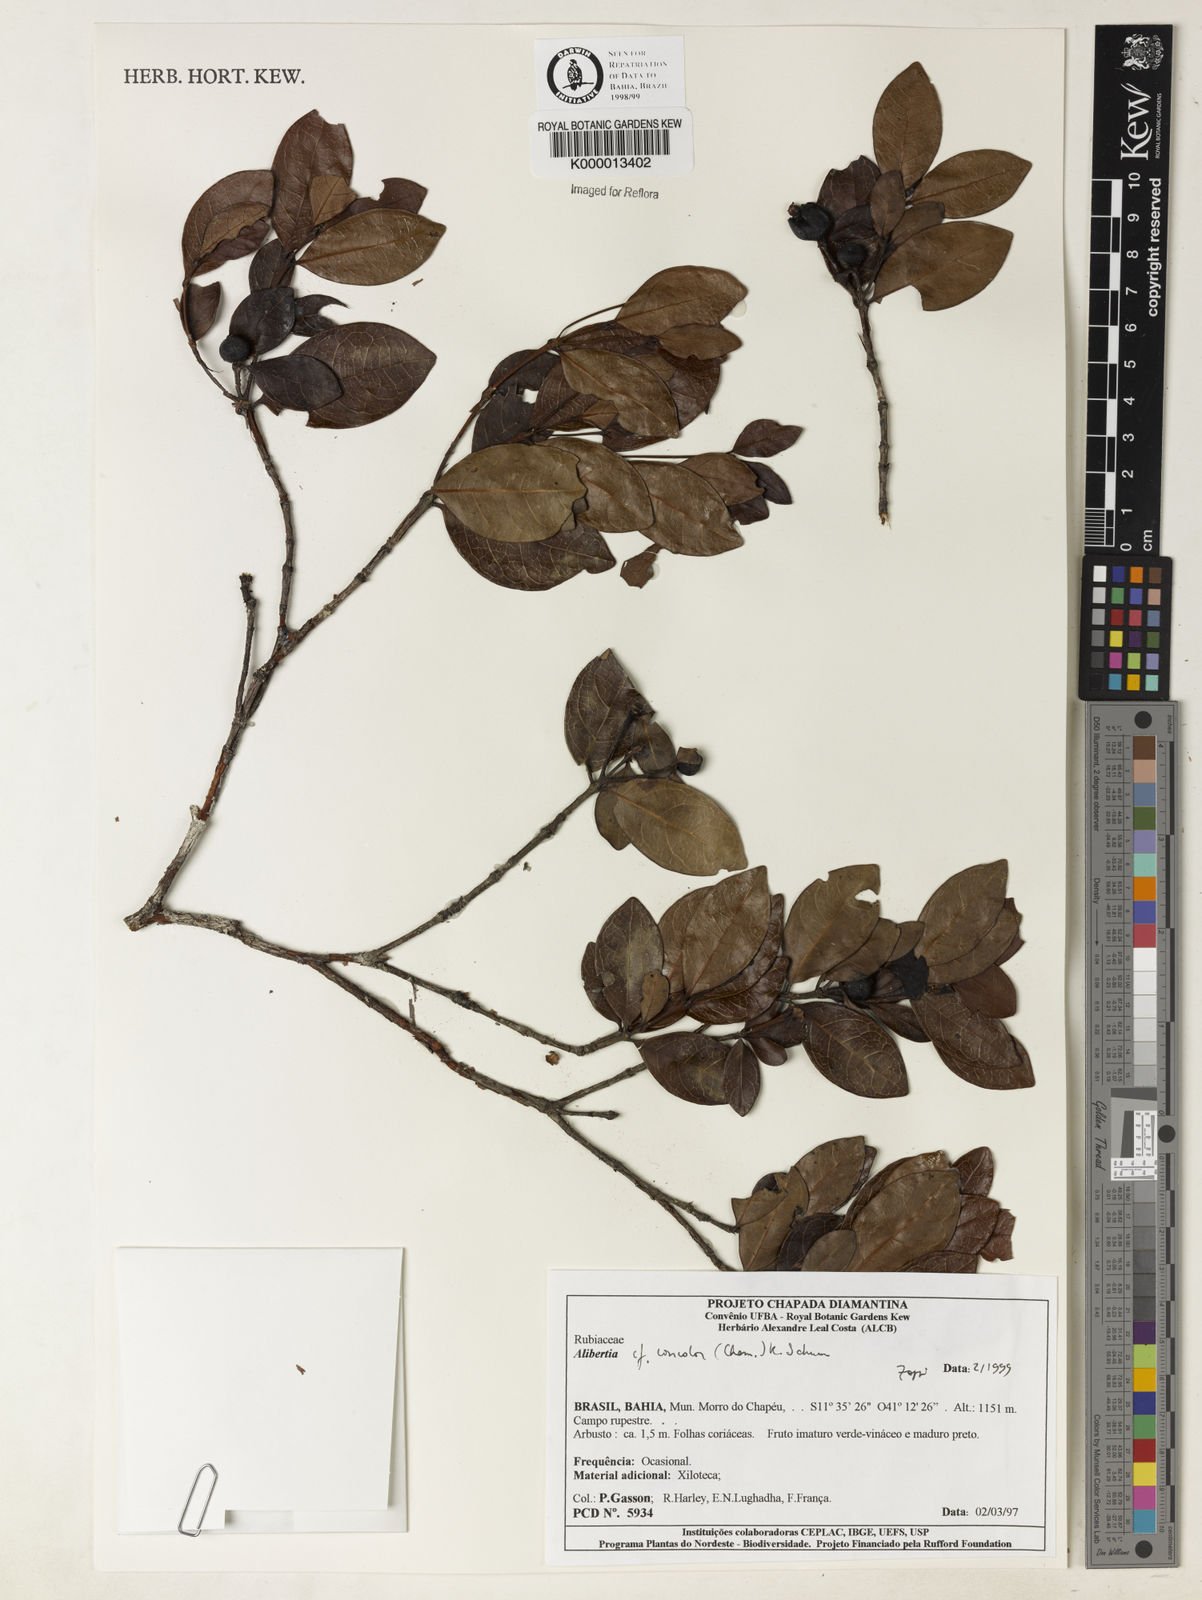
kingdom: Plantae
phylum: Tracheophyta
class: Magnoliopsida
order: Gentianales
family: Rubiaceae
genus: Cordiera
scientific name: Cordiera concolor
